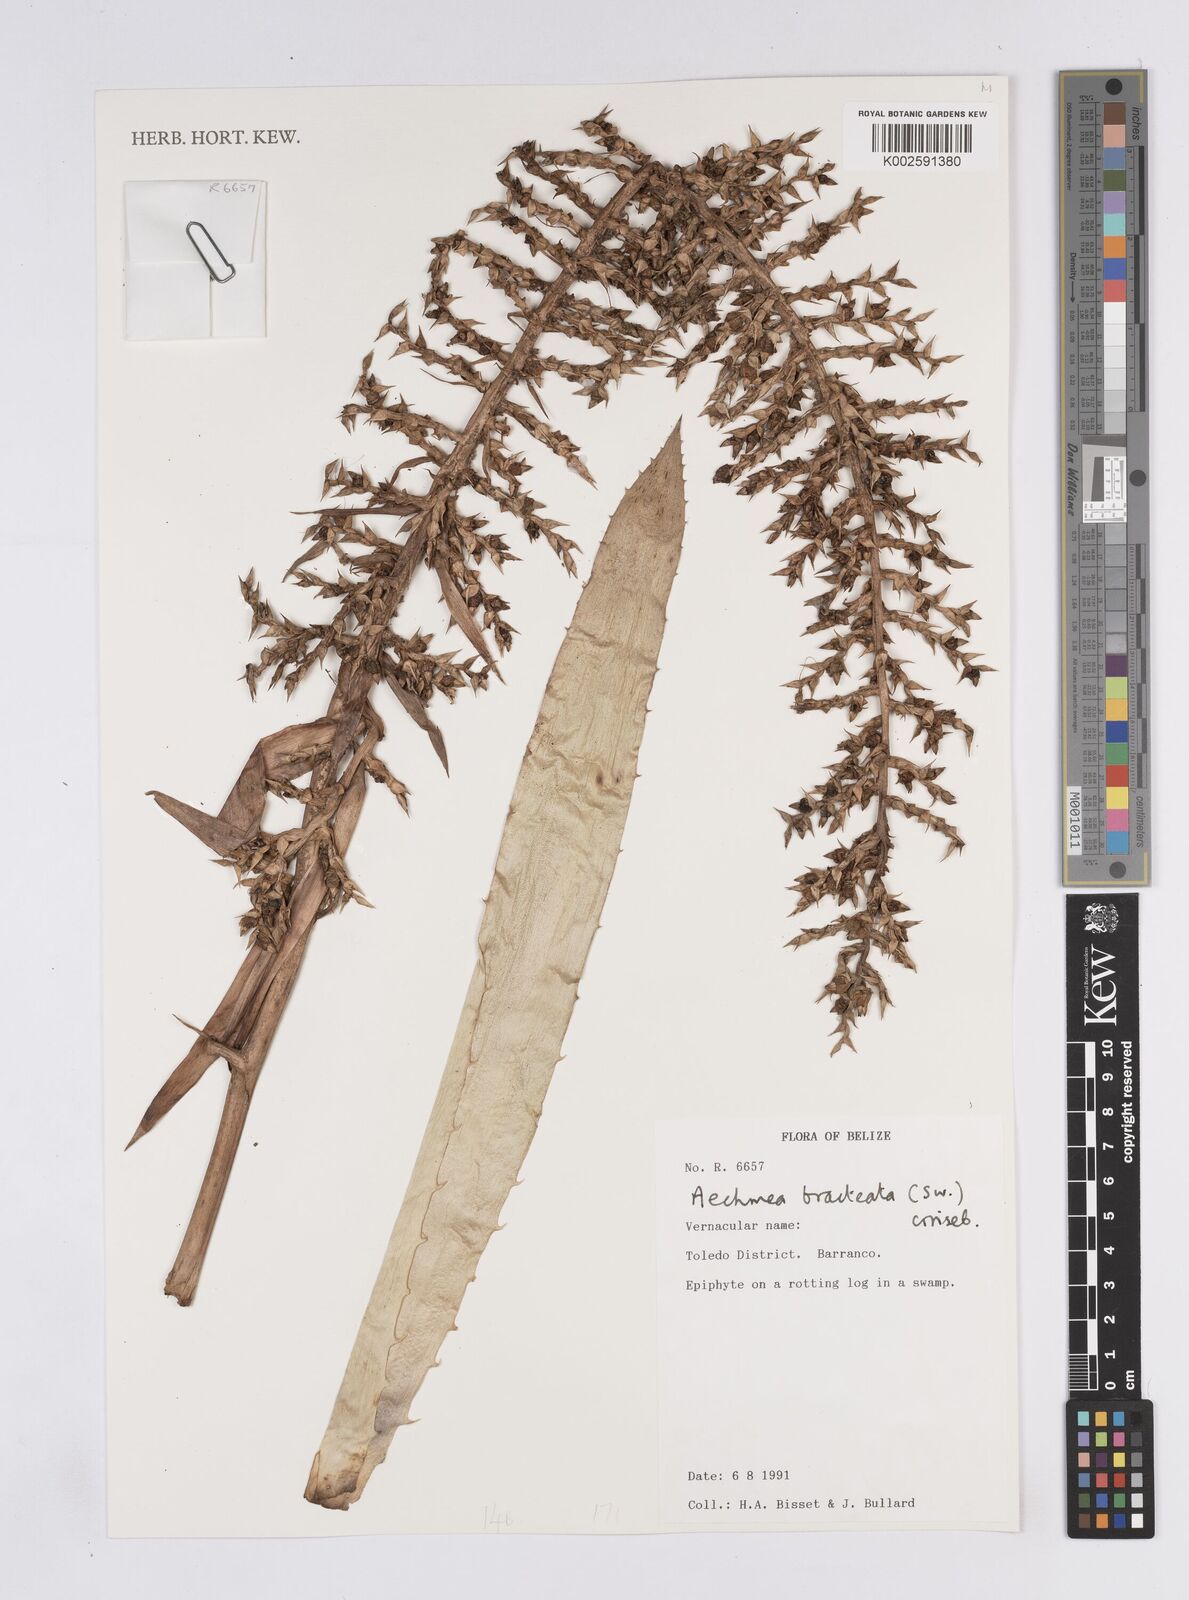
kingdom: Plantae
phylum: Tracheophyta
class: Liliopsida
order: Poales
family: Bromeliaceae
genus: Aechmea
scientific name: Aechmea bracteata
